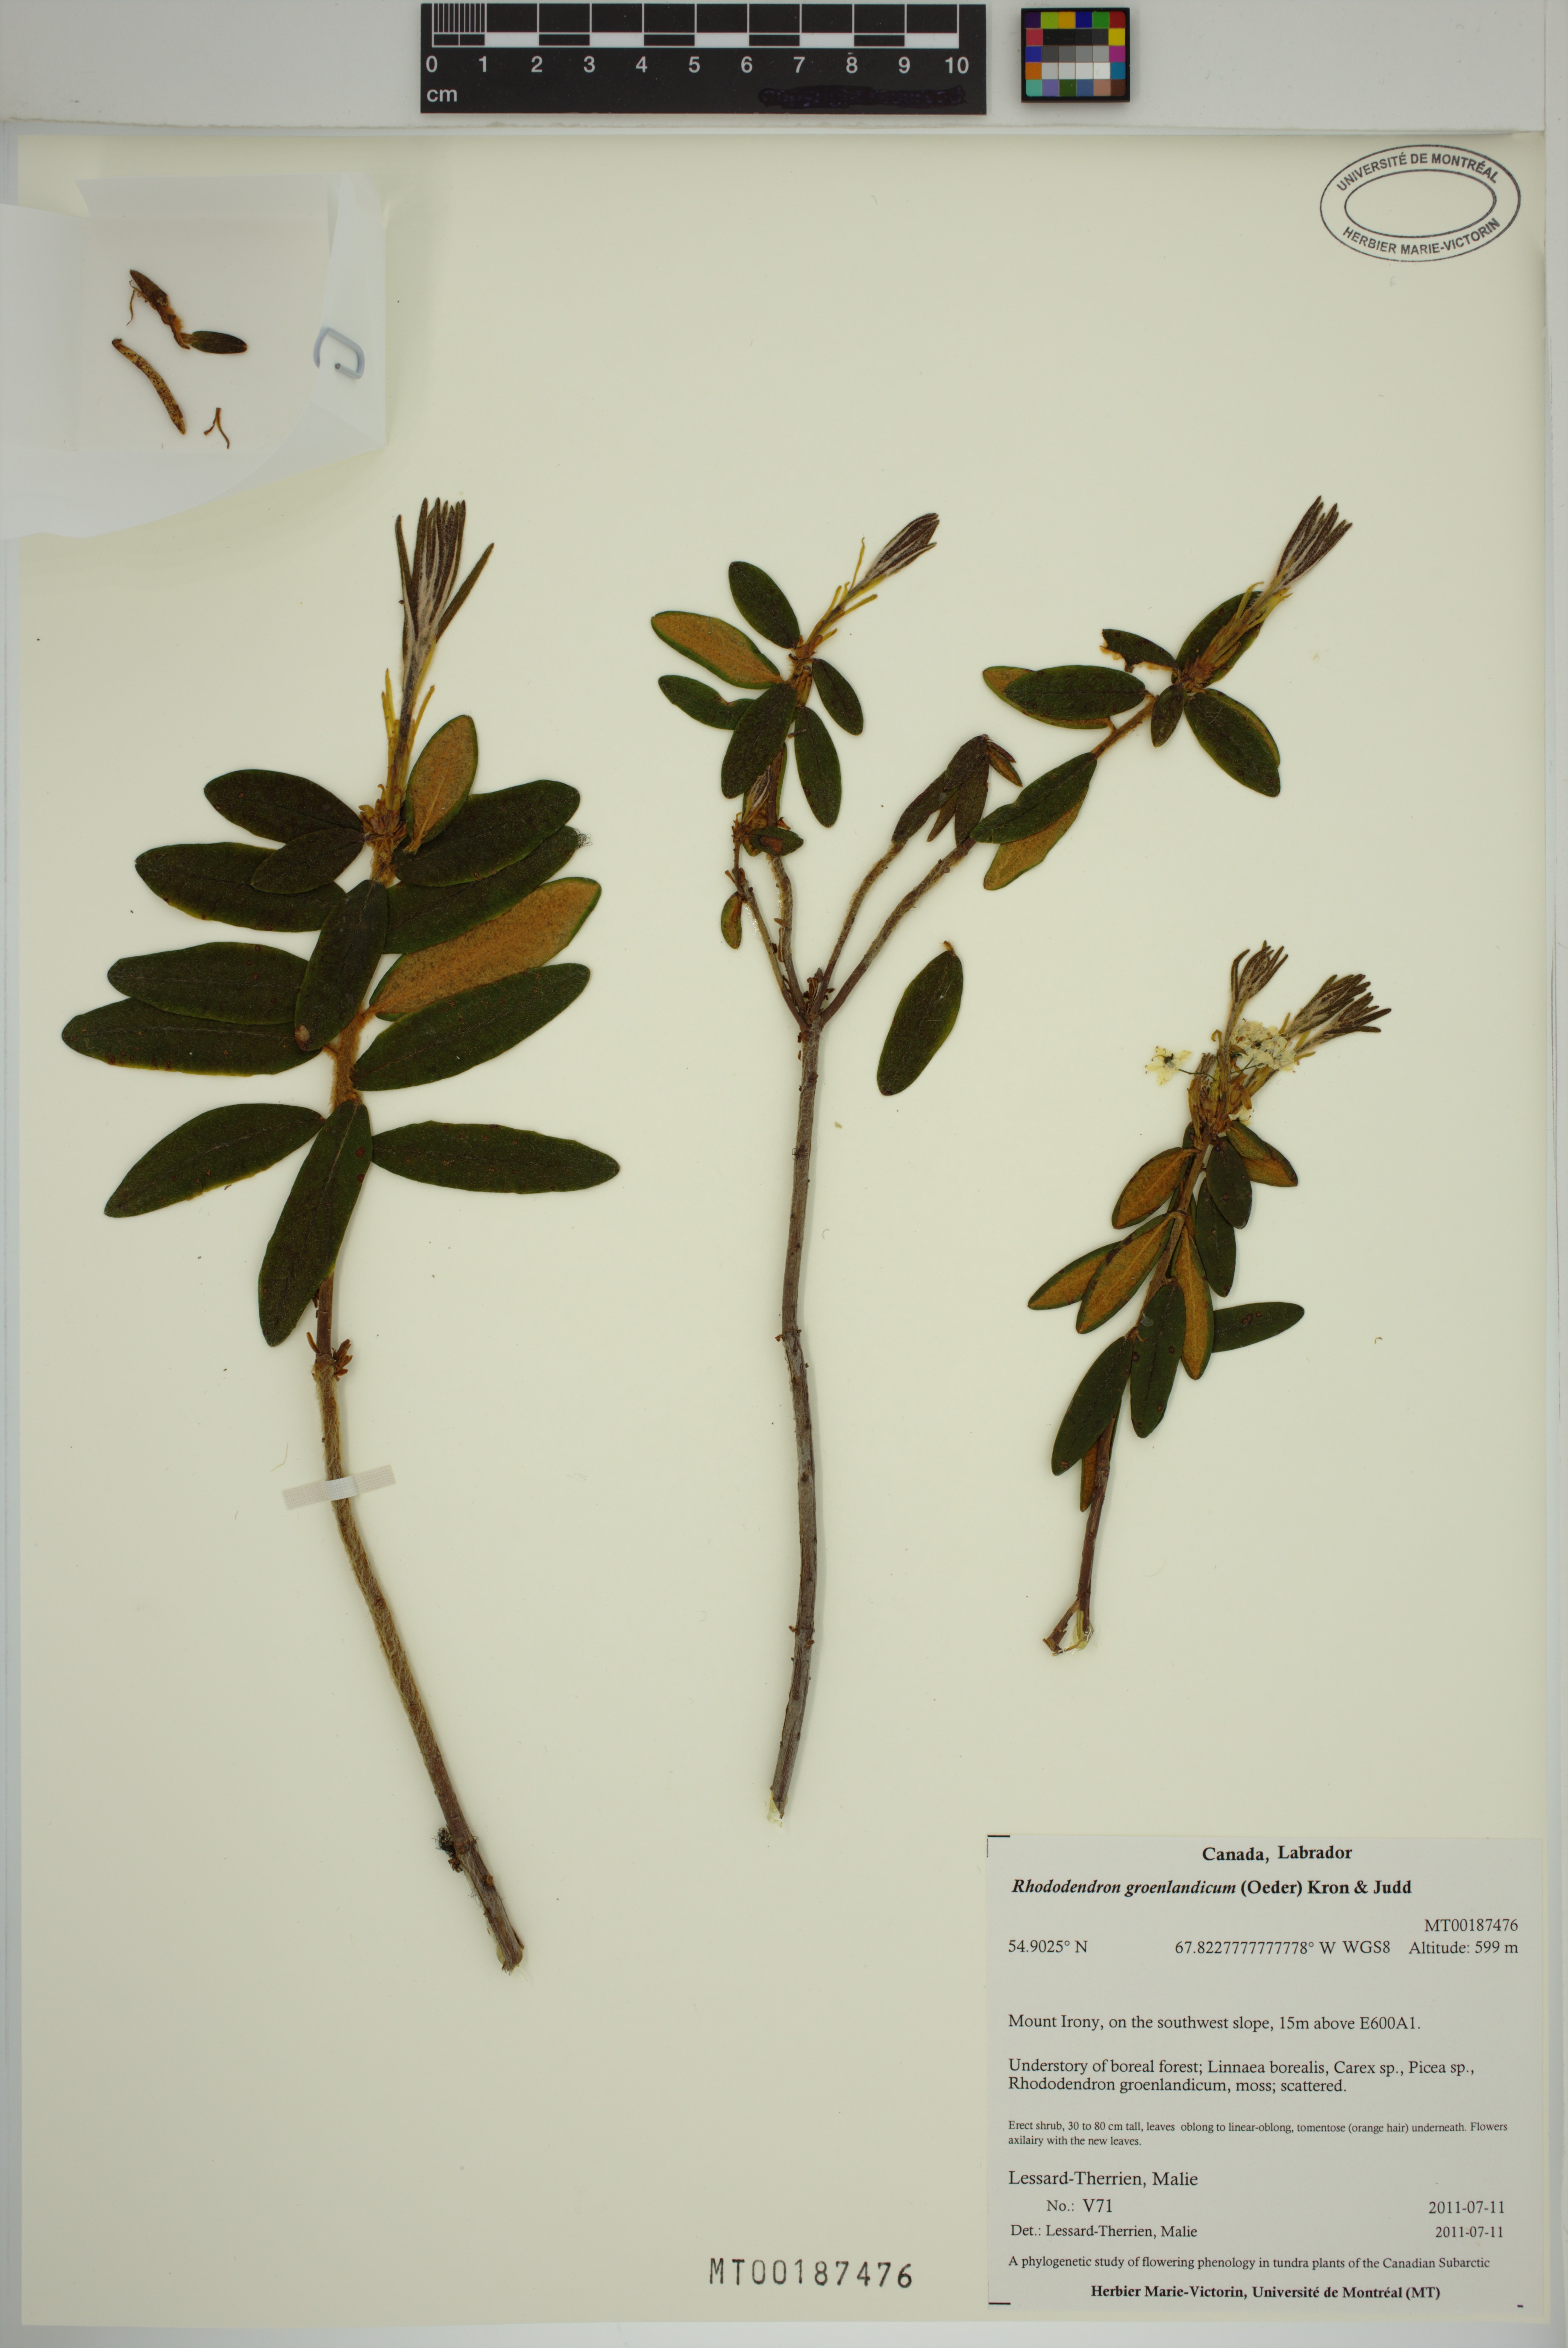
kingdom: Plantae
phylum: Tracheophyta
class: Magnoliopsida
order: Ericales
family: Ericaceae
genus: Rhododendron
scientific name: Rhododendron groenlandicum
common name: Bog labrador tea
